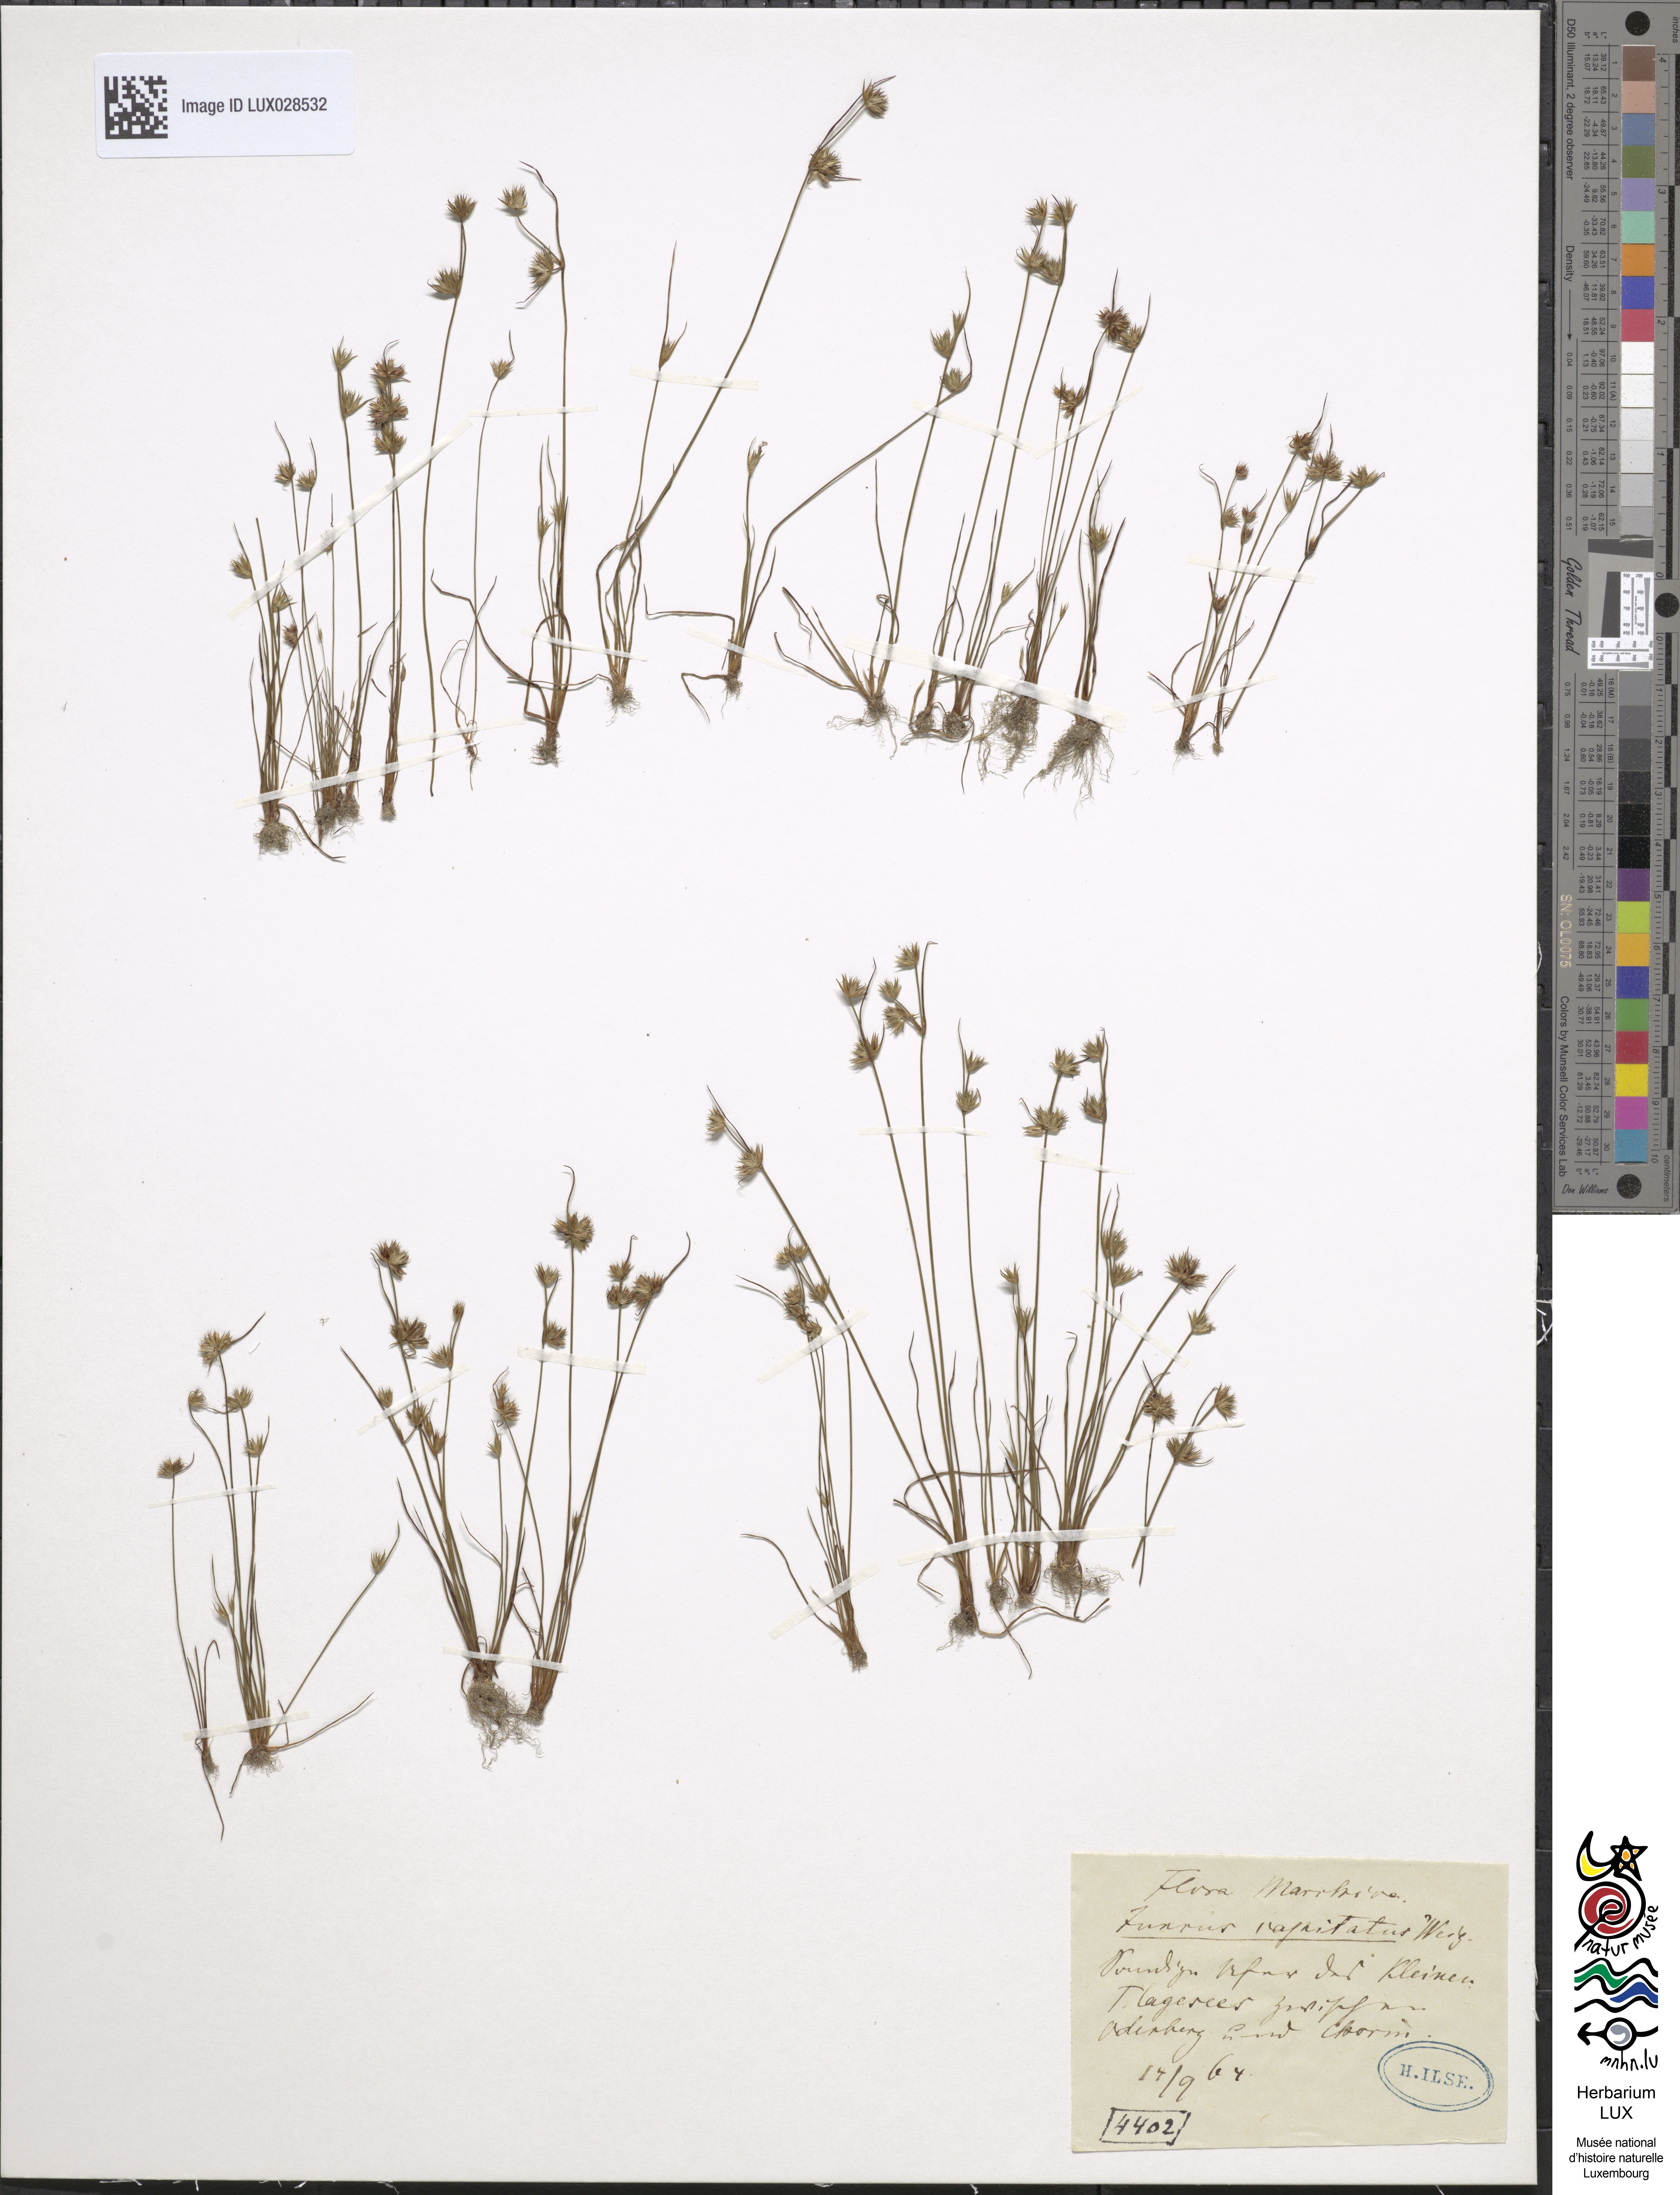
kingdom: Plantae
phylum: Tracheophyta
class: Liliopsida
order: Poales
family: Juncaceae
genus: Juncus
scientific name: Juncus capitatus
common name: Dwarf rush
